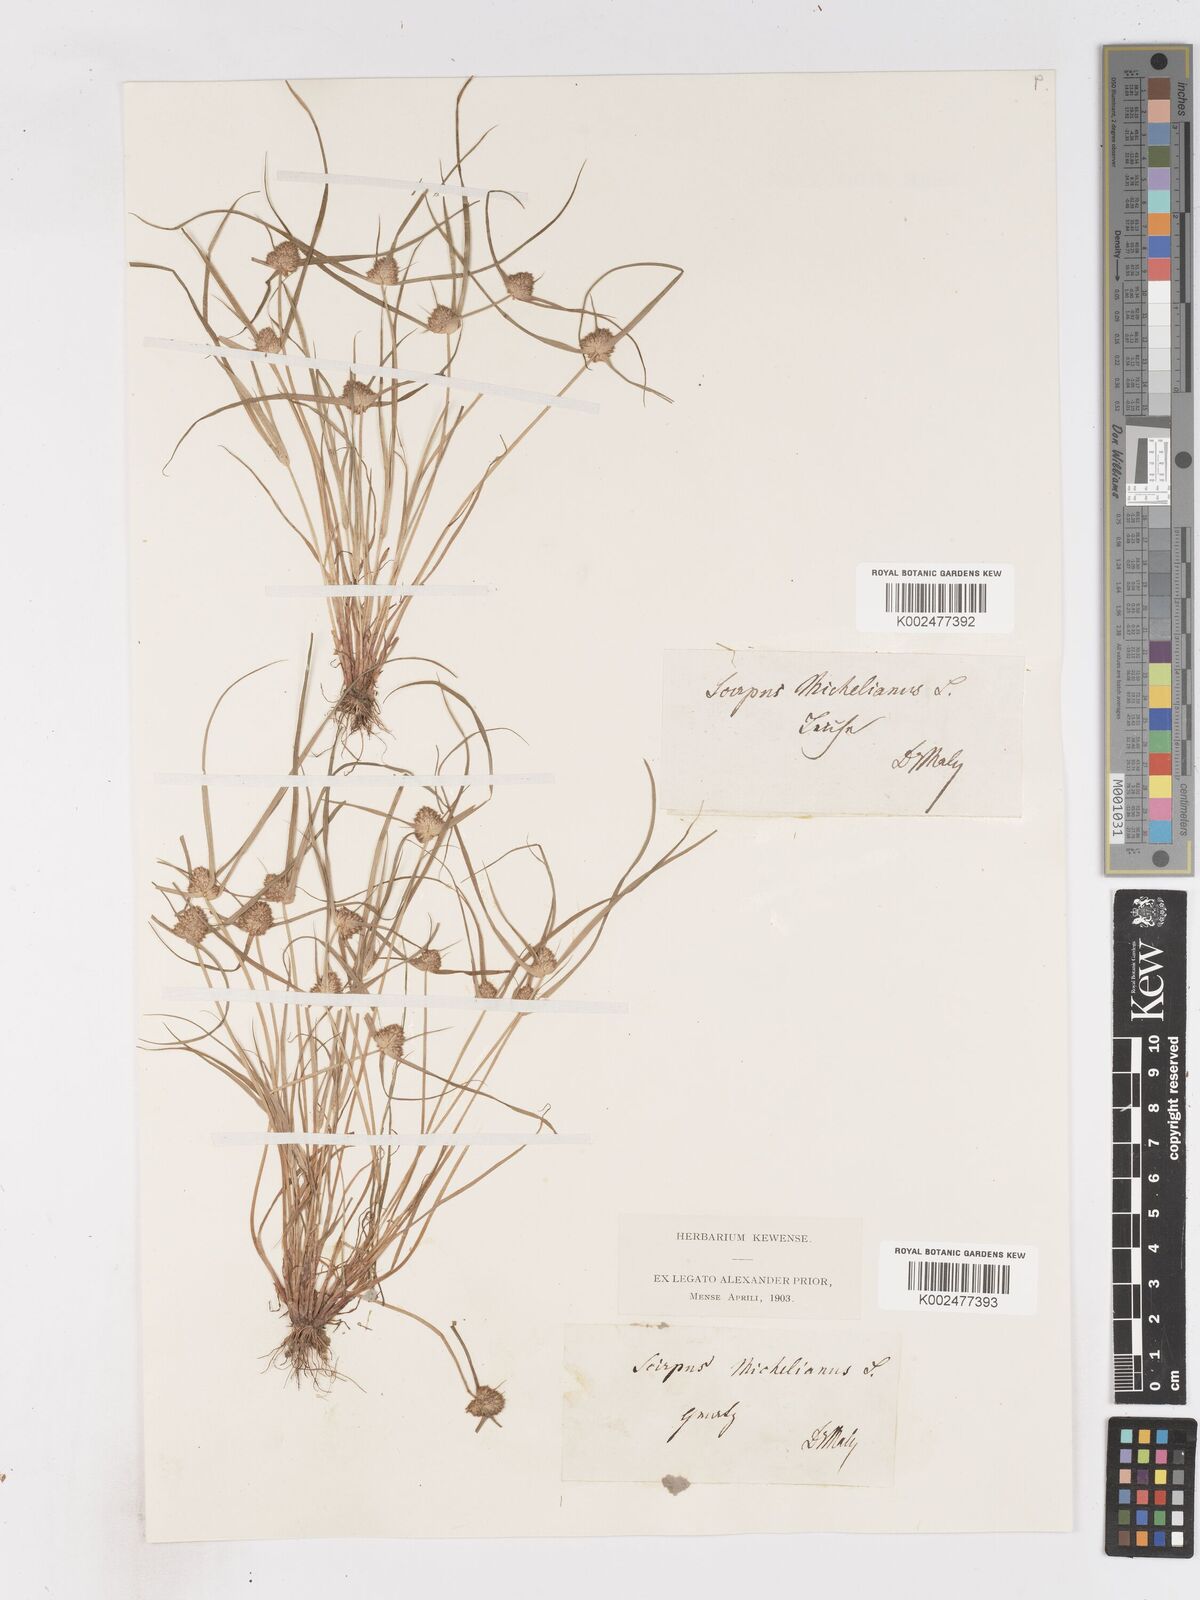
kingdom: Plantae
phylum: Tracheophyta
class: Liliopsida
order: Poales
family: Cyperaceae
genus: Cyperus
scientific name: Cyperus michelianus
